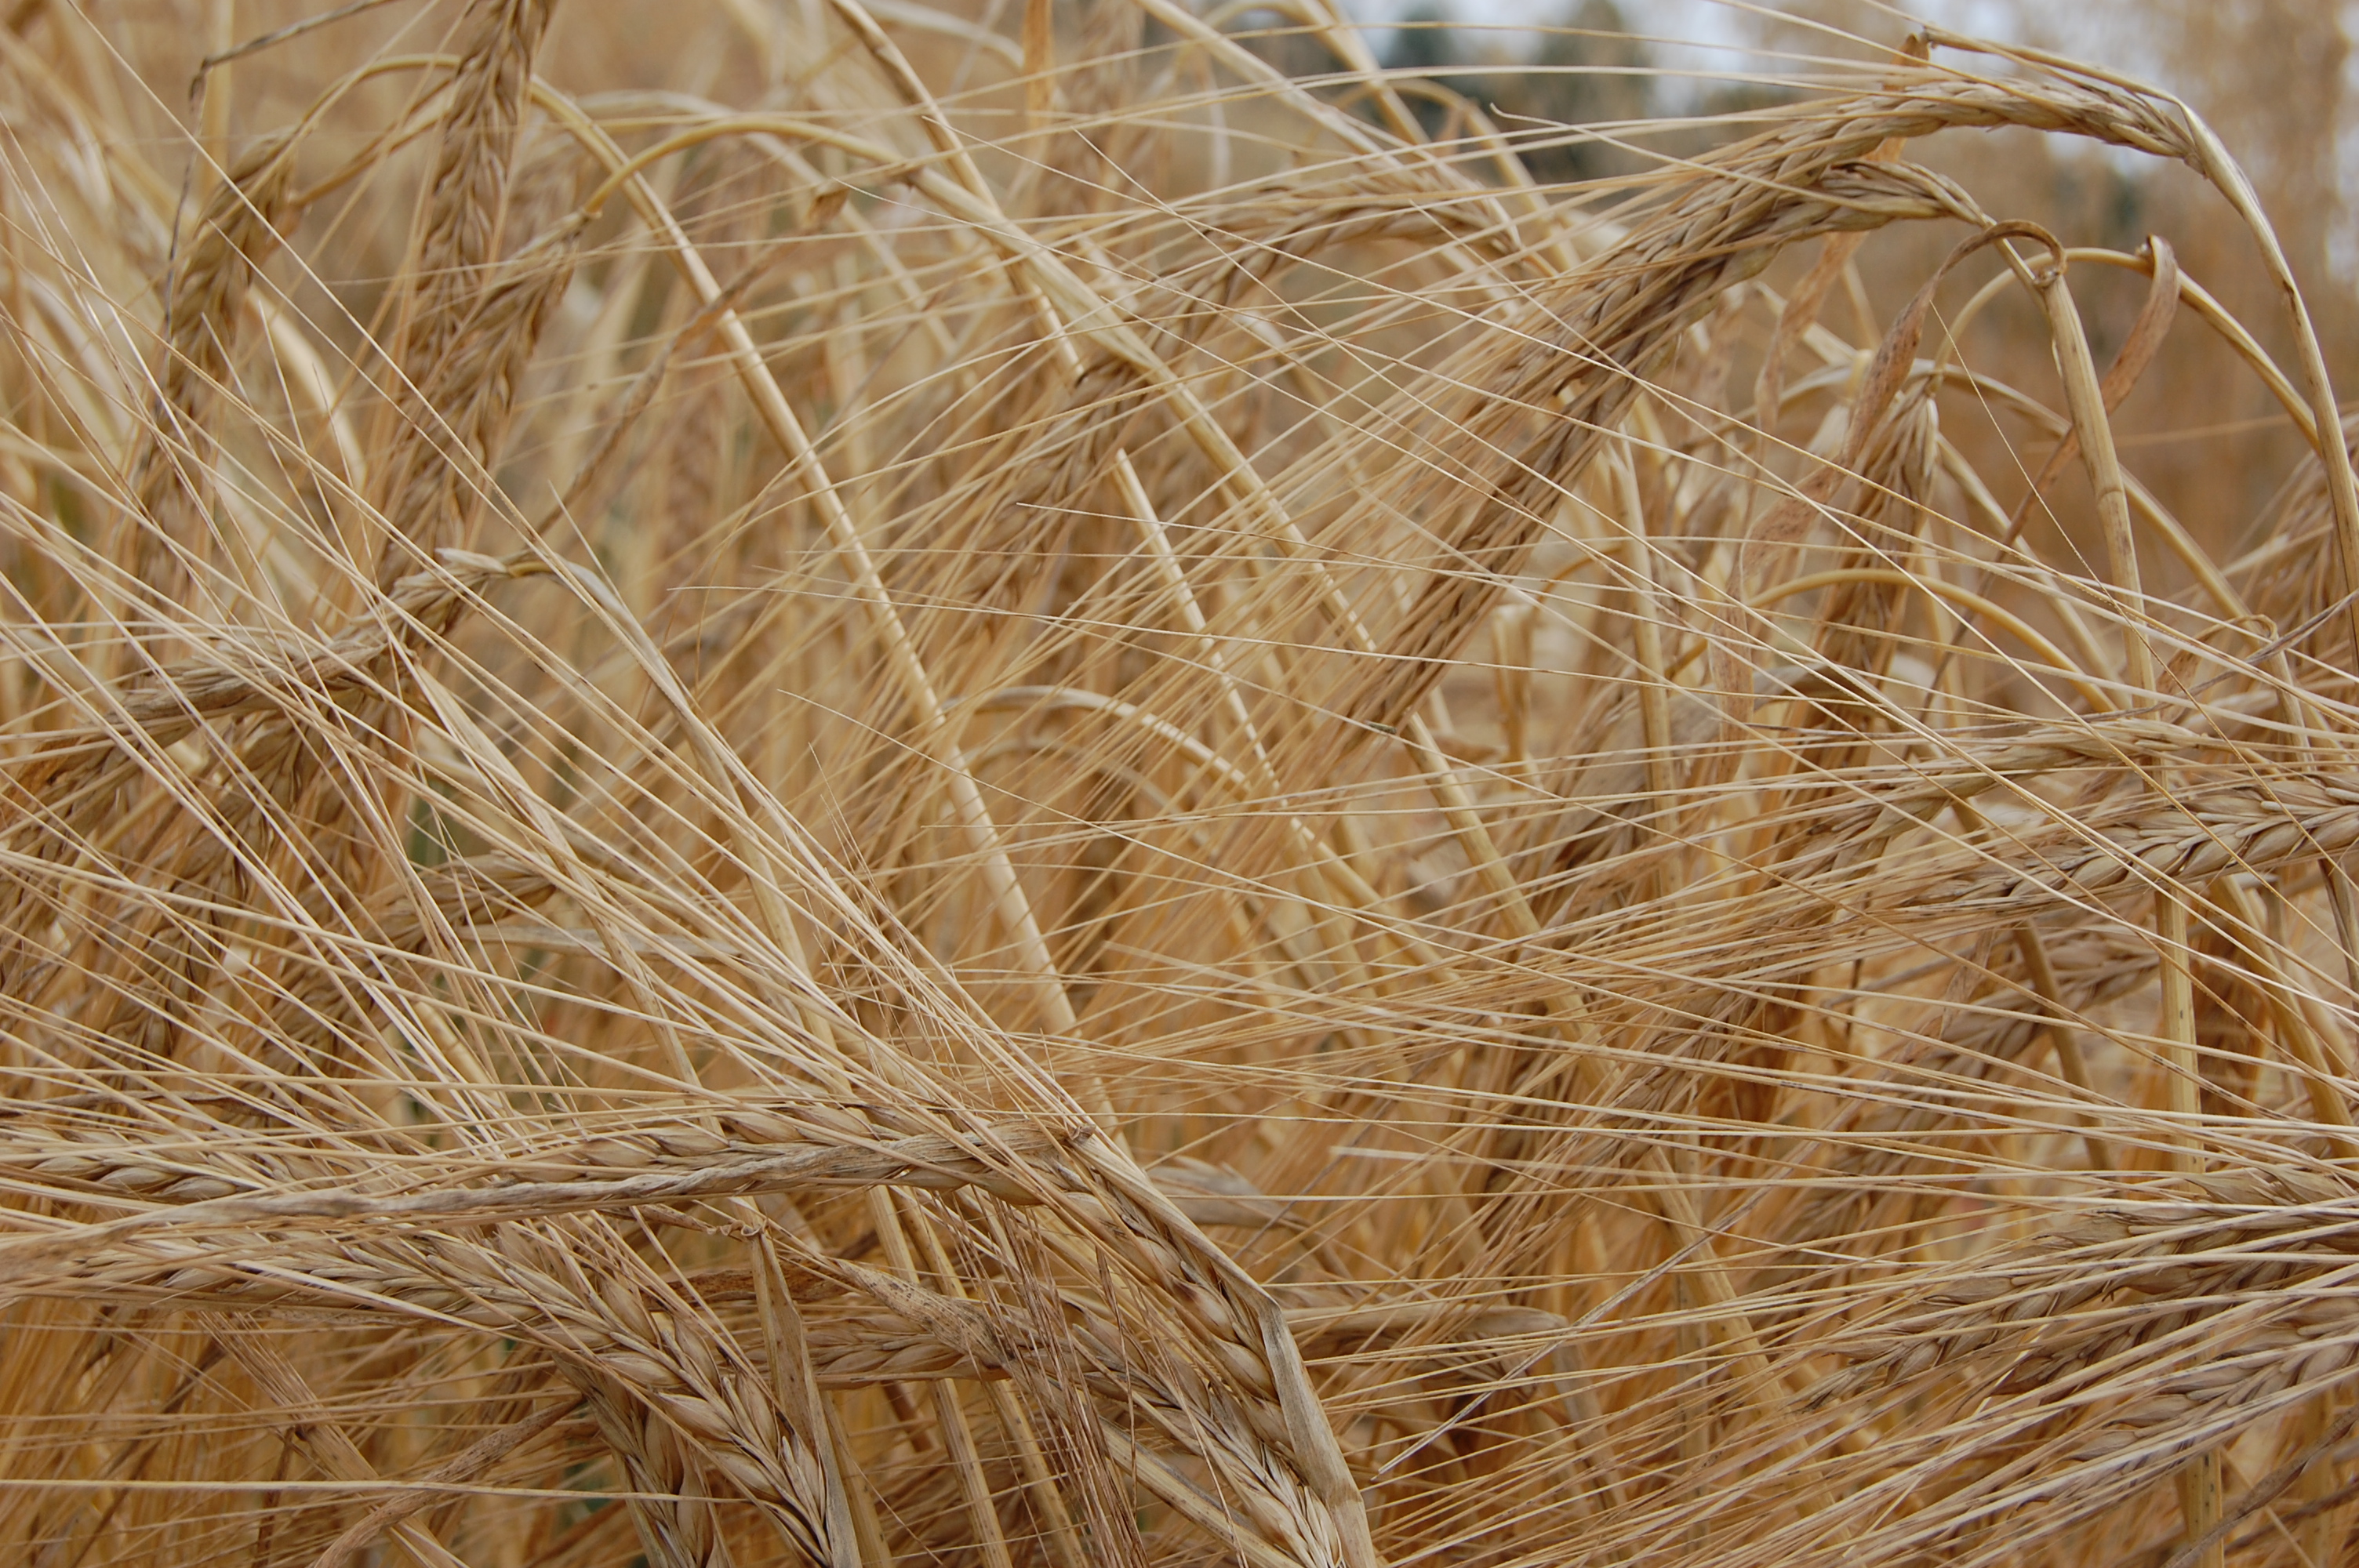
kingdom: Plantae
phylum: Tracheophyta
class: Liliopsida
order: Poales
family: Poaceae
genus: Hordeum
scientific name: Hordeum vulgare
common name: Common barley
